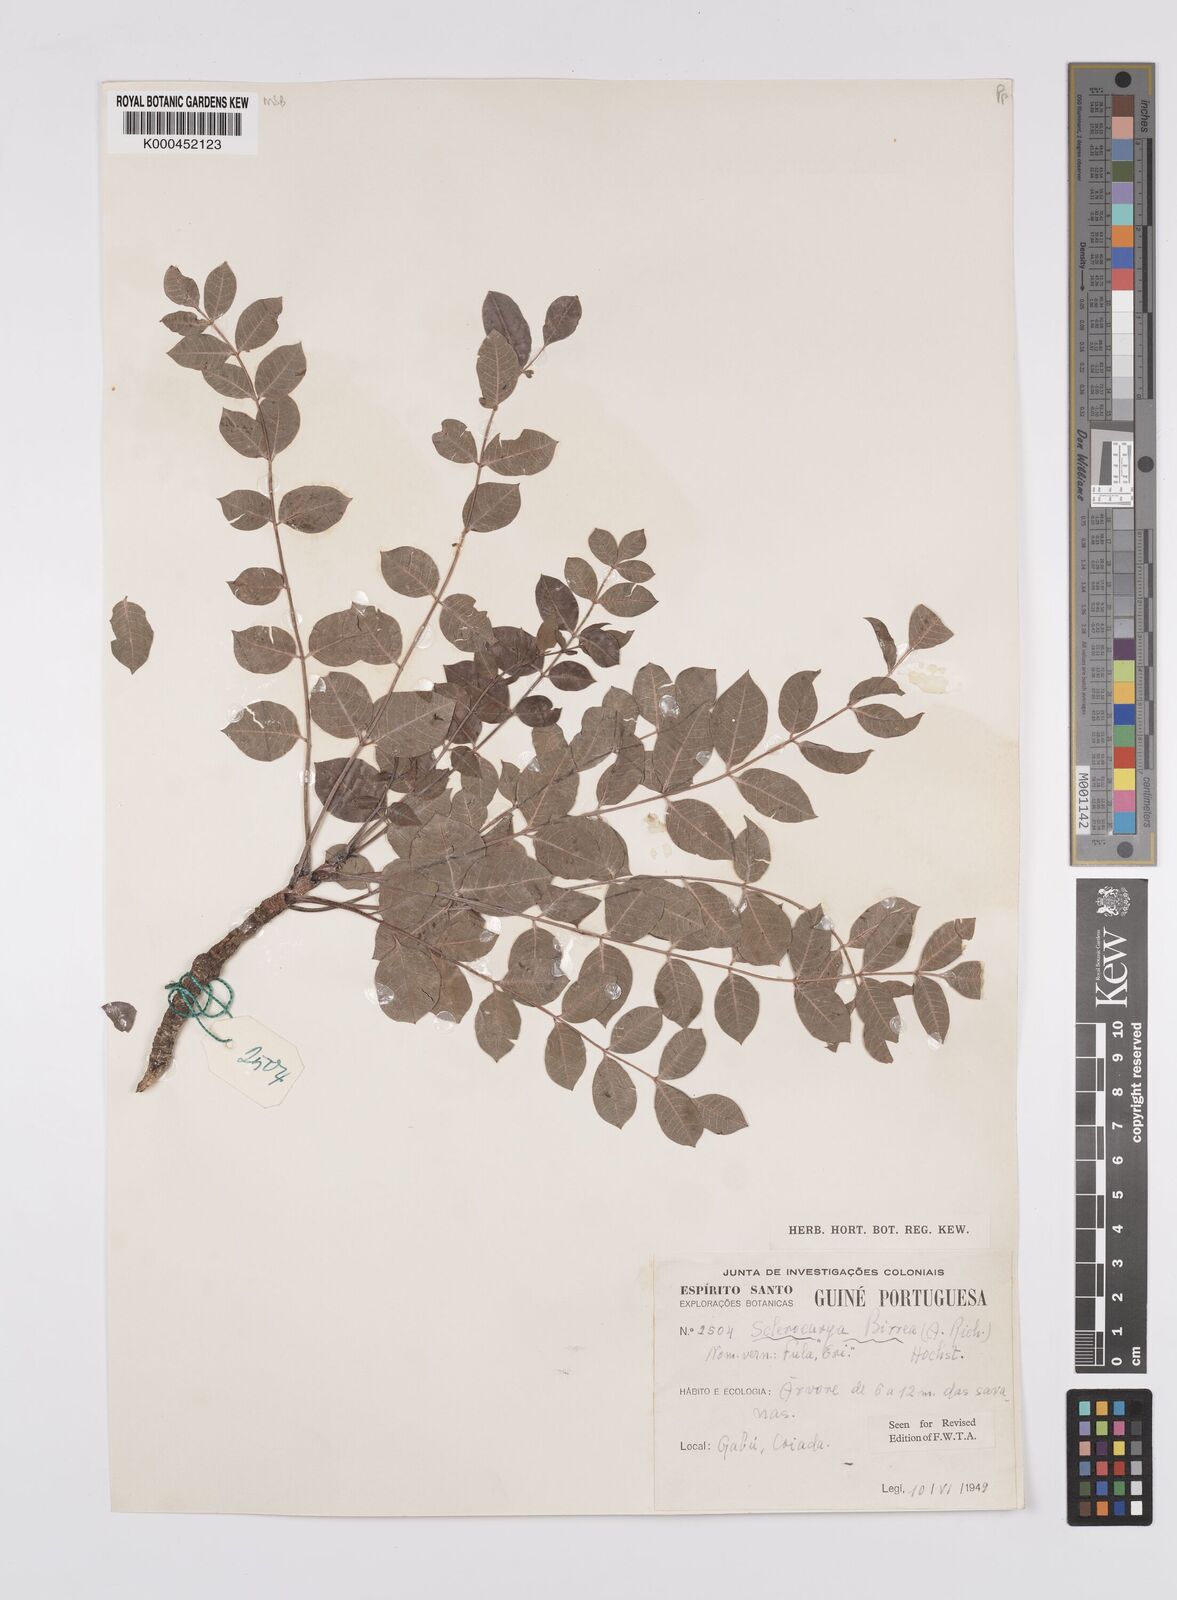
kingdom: Plantae
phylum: Tracheophyta
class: Magnoliopsida
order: Sapindales
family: Anacardiaceae
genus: Sclerocarya
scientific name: Sclerocarya birrea
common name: Marula
